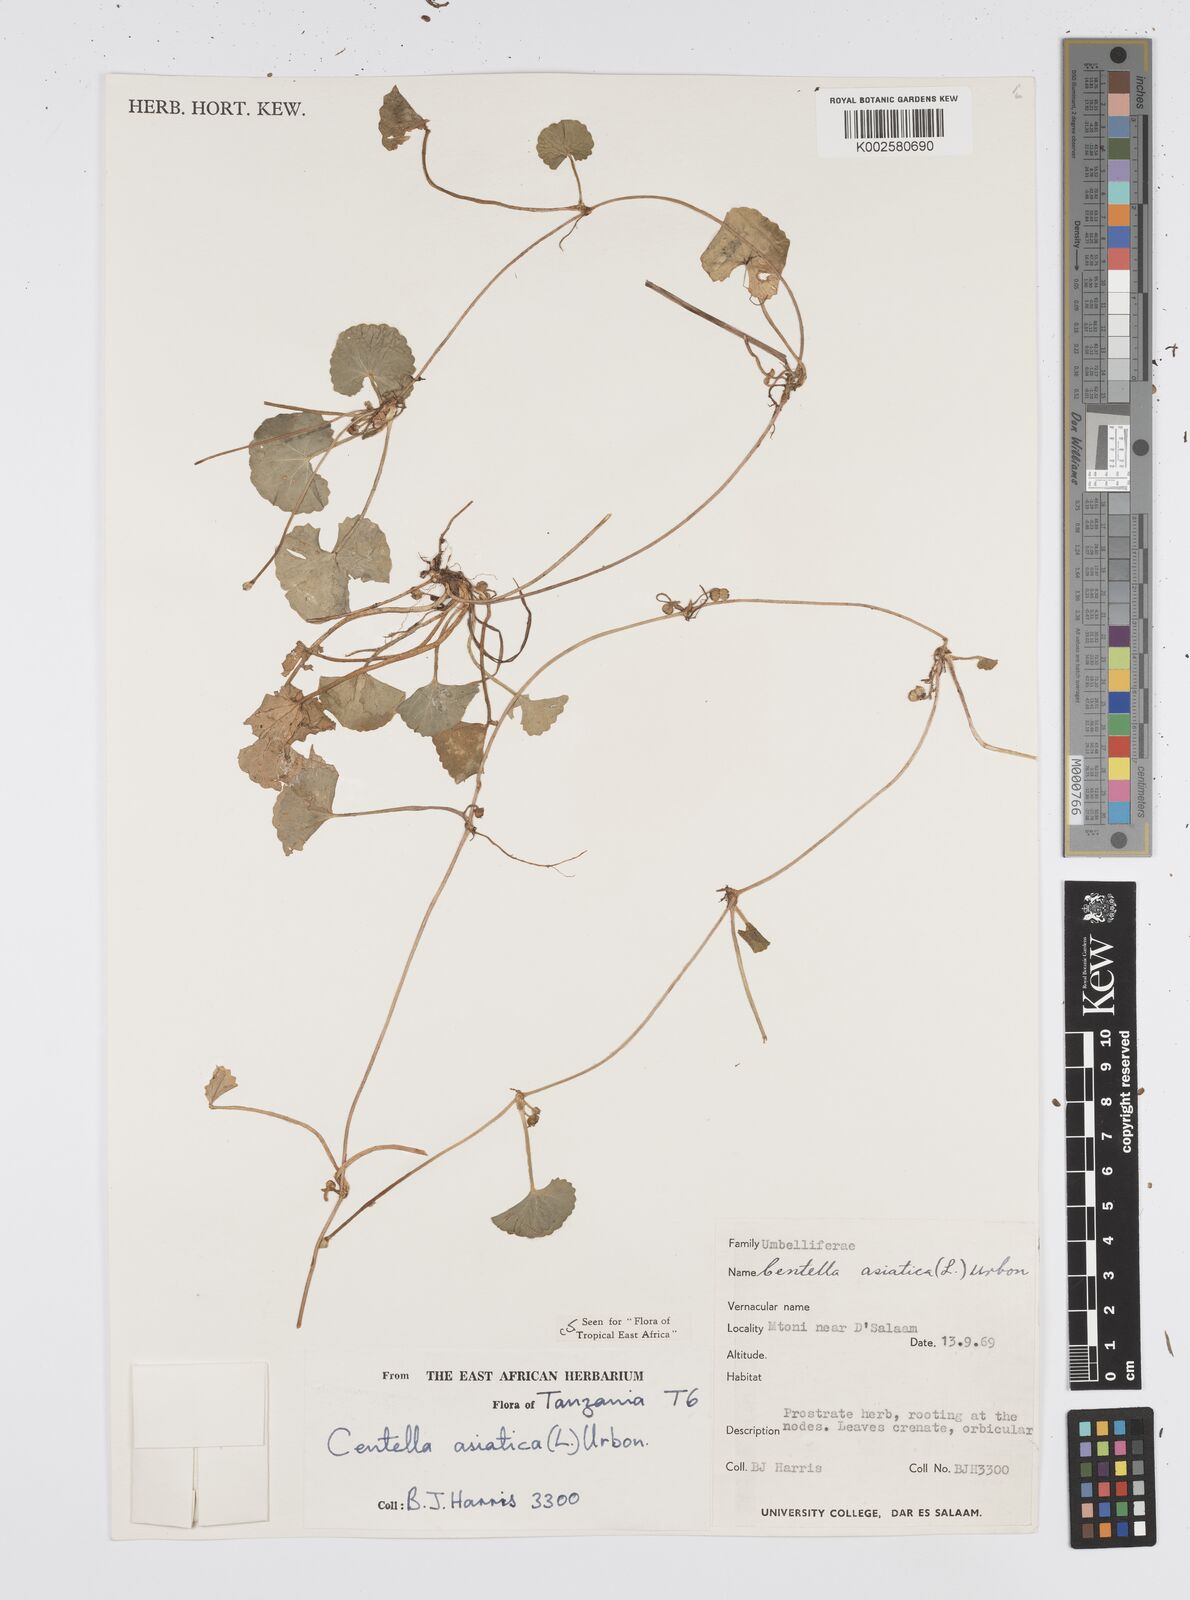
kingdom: Plantae
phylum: Tracheophyta
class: Magnoliopsida
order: Apiales
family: Apiaceae
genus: Centella
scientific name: Centella asiatica
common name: Spadeleaf
